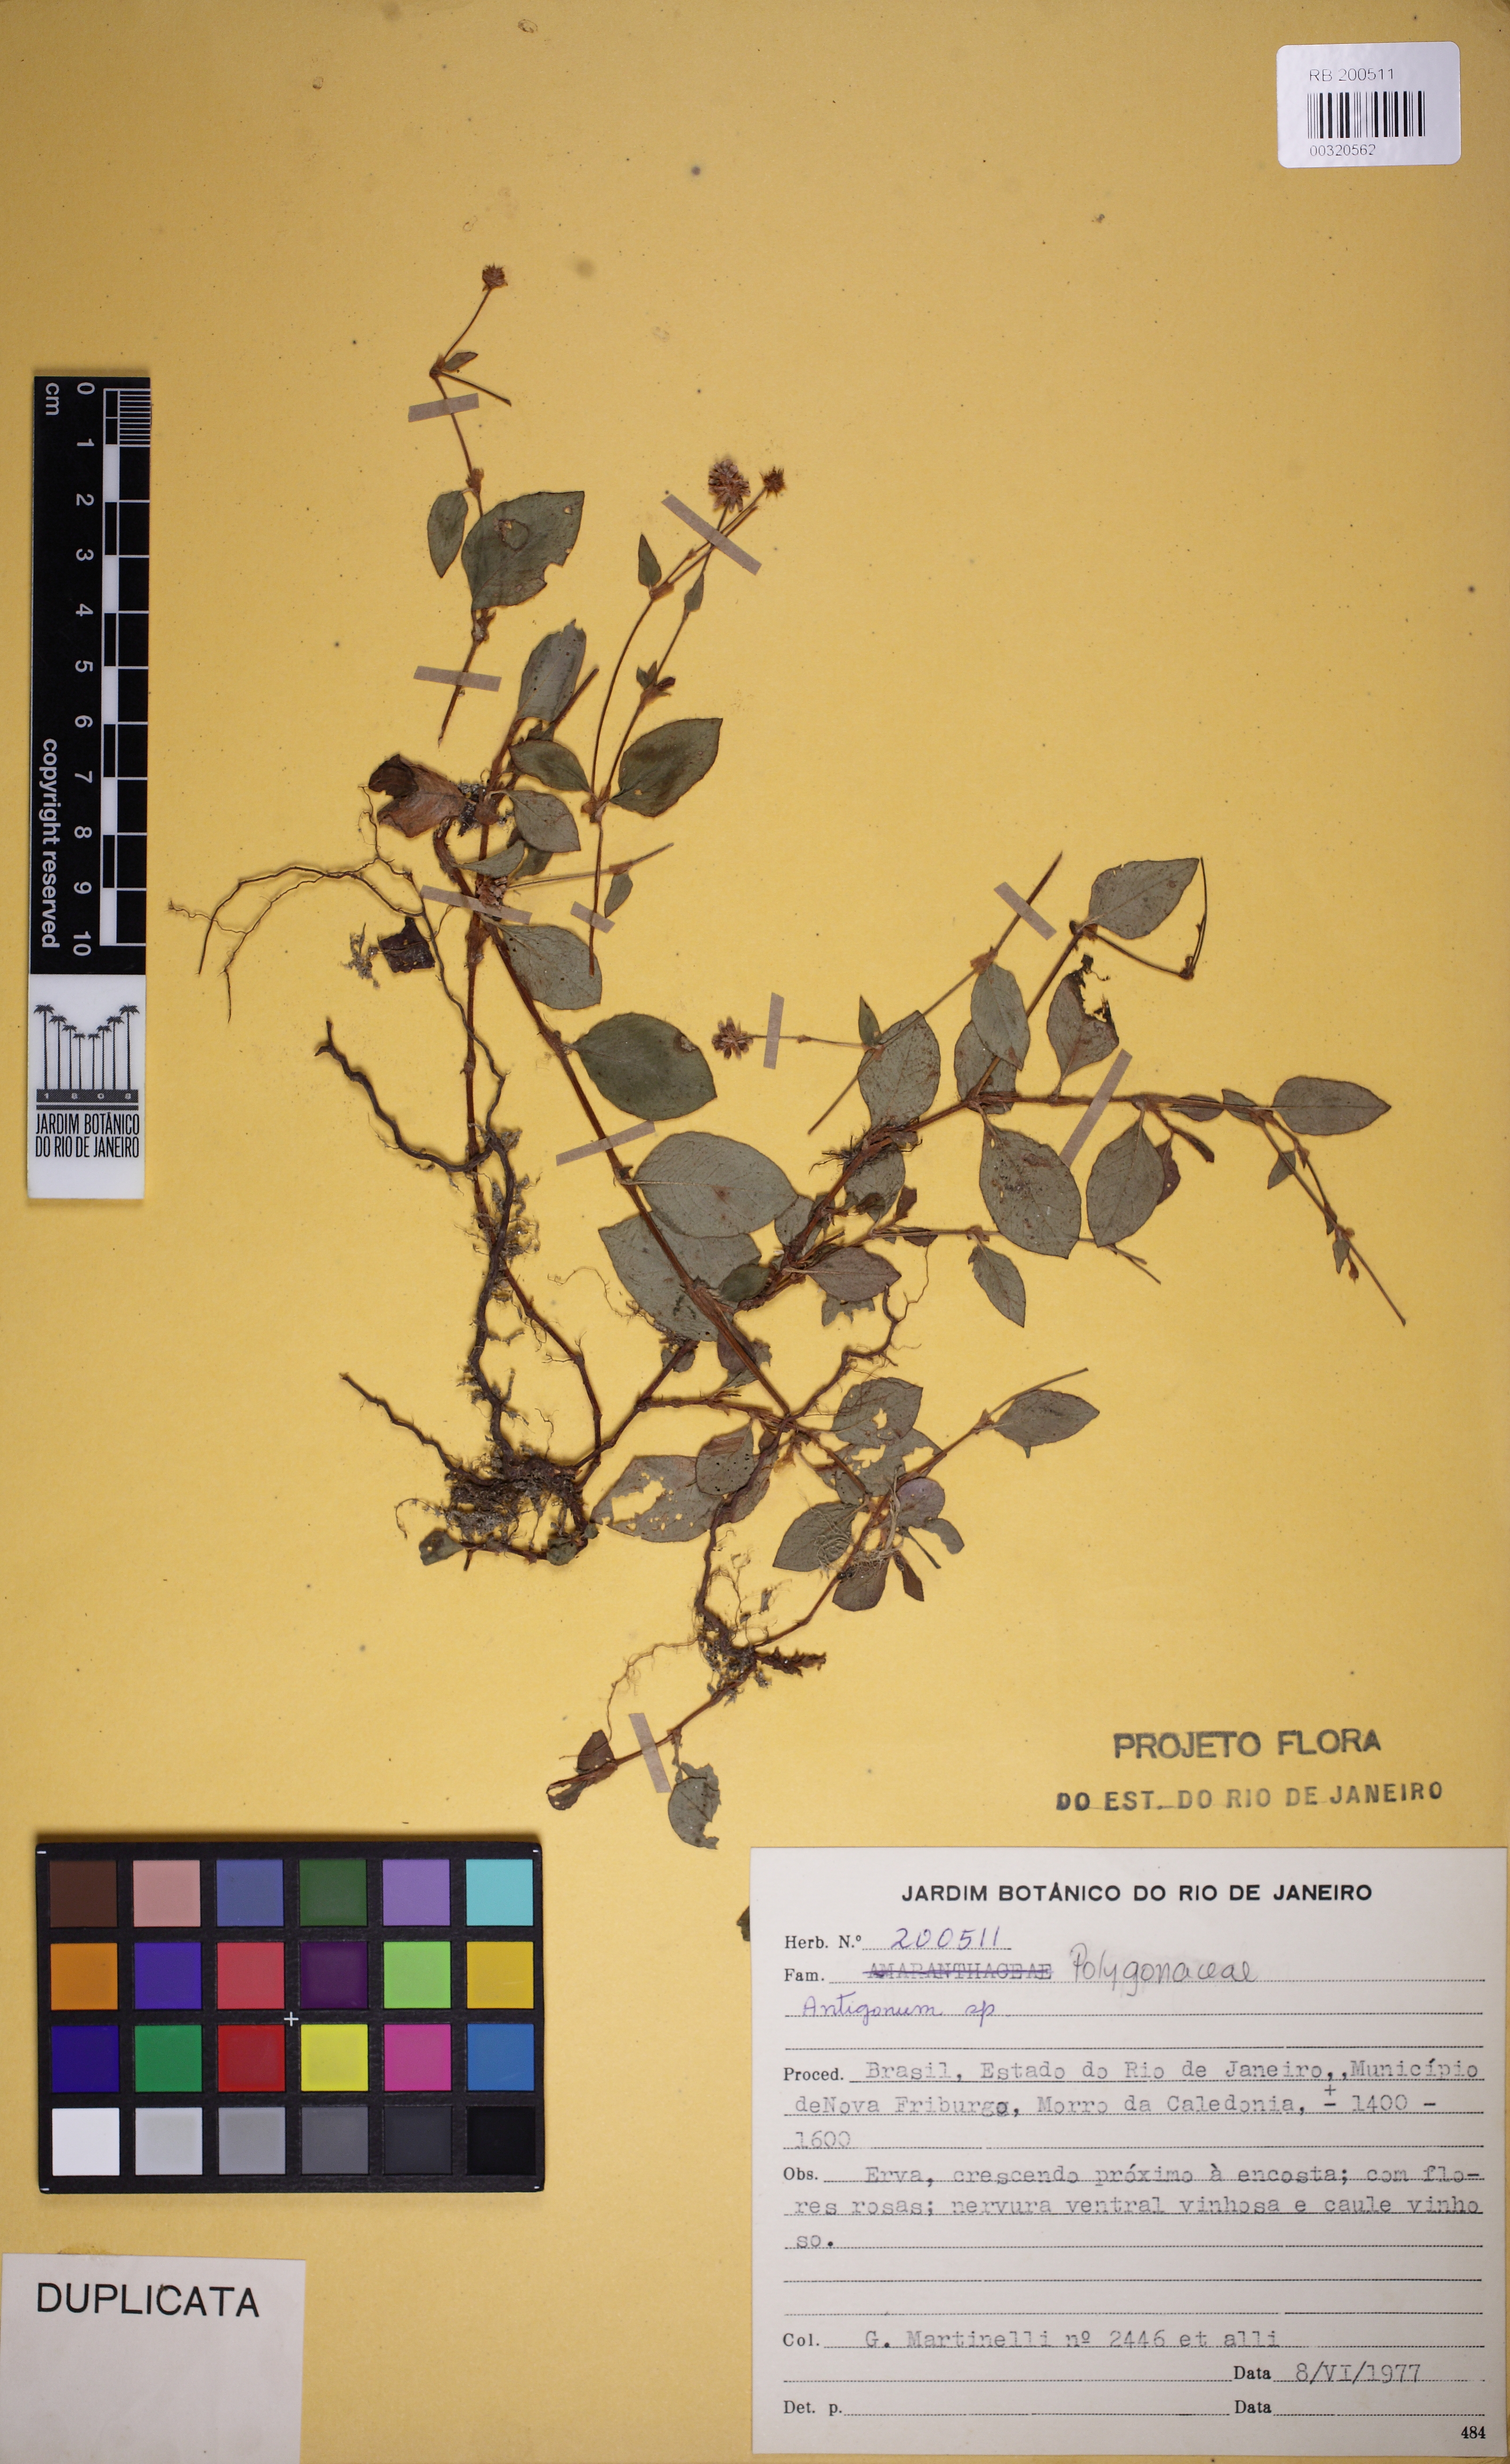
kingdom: Plantae
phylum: Tracheophyta
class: Magnoliopsida
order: Caryophyllales
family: Polygonaceae
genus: Antigonon
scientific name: Antigonon
